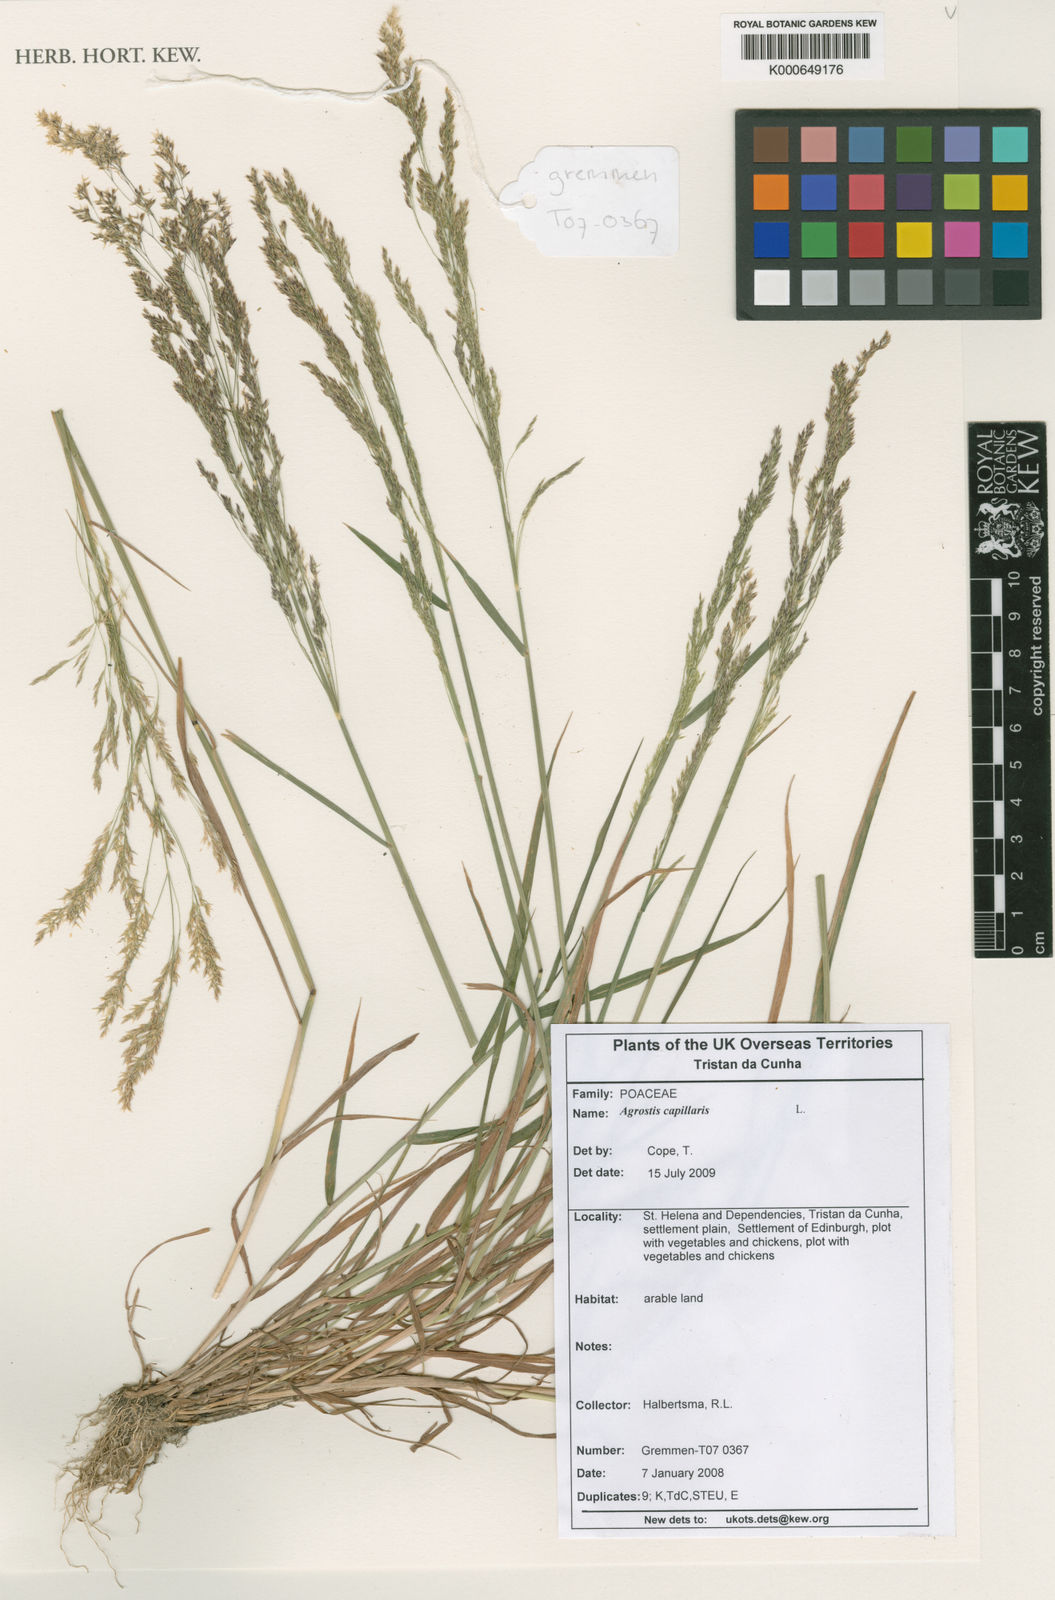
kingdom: Plantae
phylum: Tracheophyta
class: Liliopsida
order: Poales
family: Poaceae
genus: Agrostis
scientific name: Agrostis capillaris
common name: Colonial bentgrass
